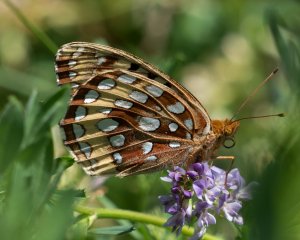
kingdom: Animalia
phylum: Arthropoda
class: Insecta
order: Lepidoptera
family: Nymphalidae
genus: Speyeria
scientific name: Speyeria cybele
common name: Great Spangled Fritillary
